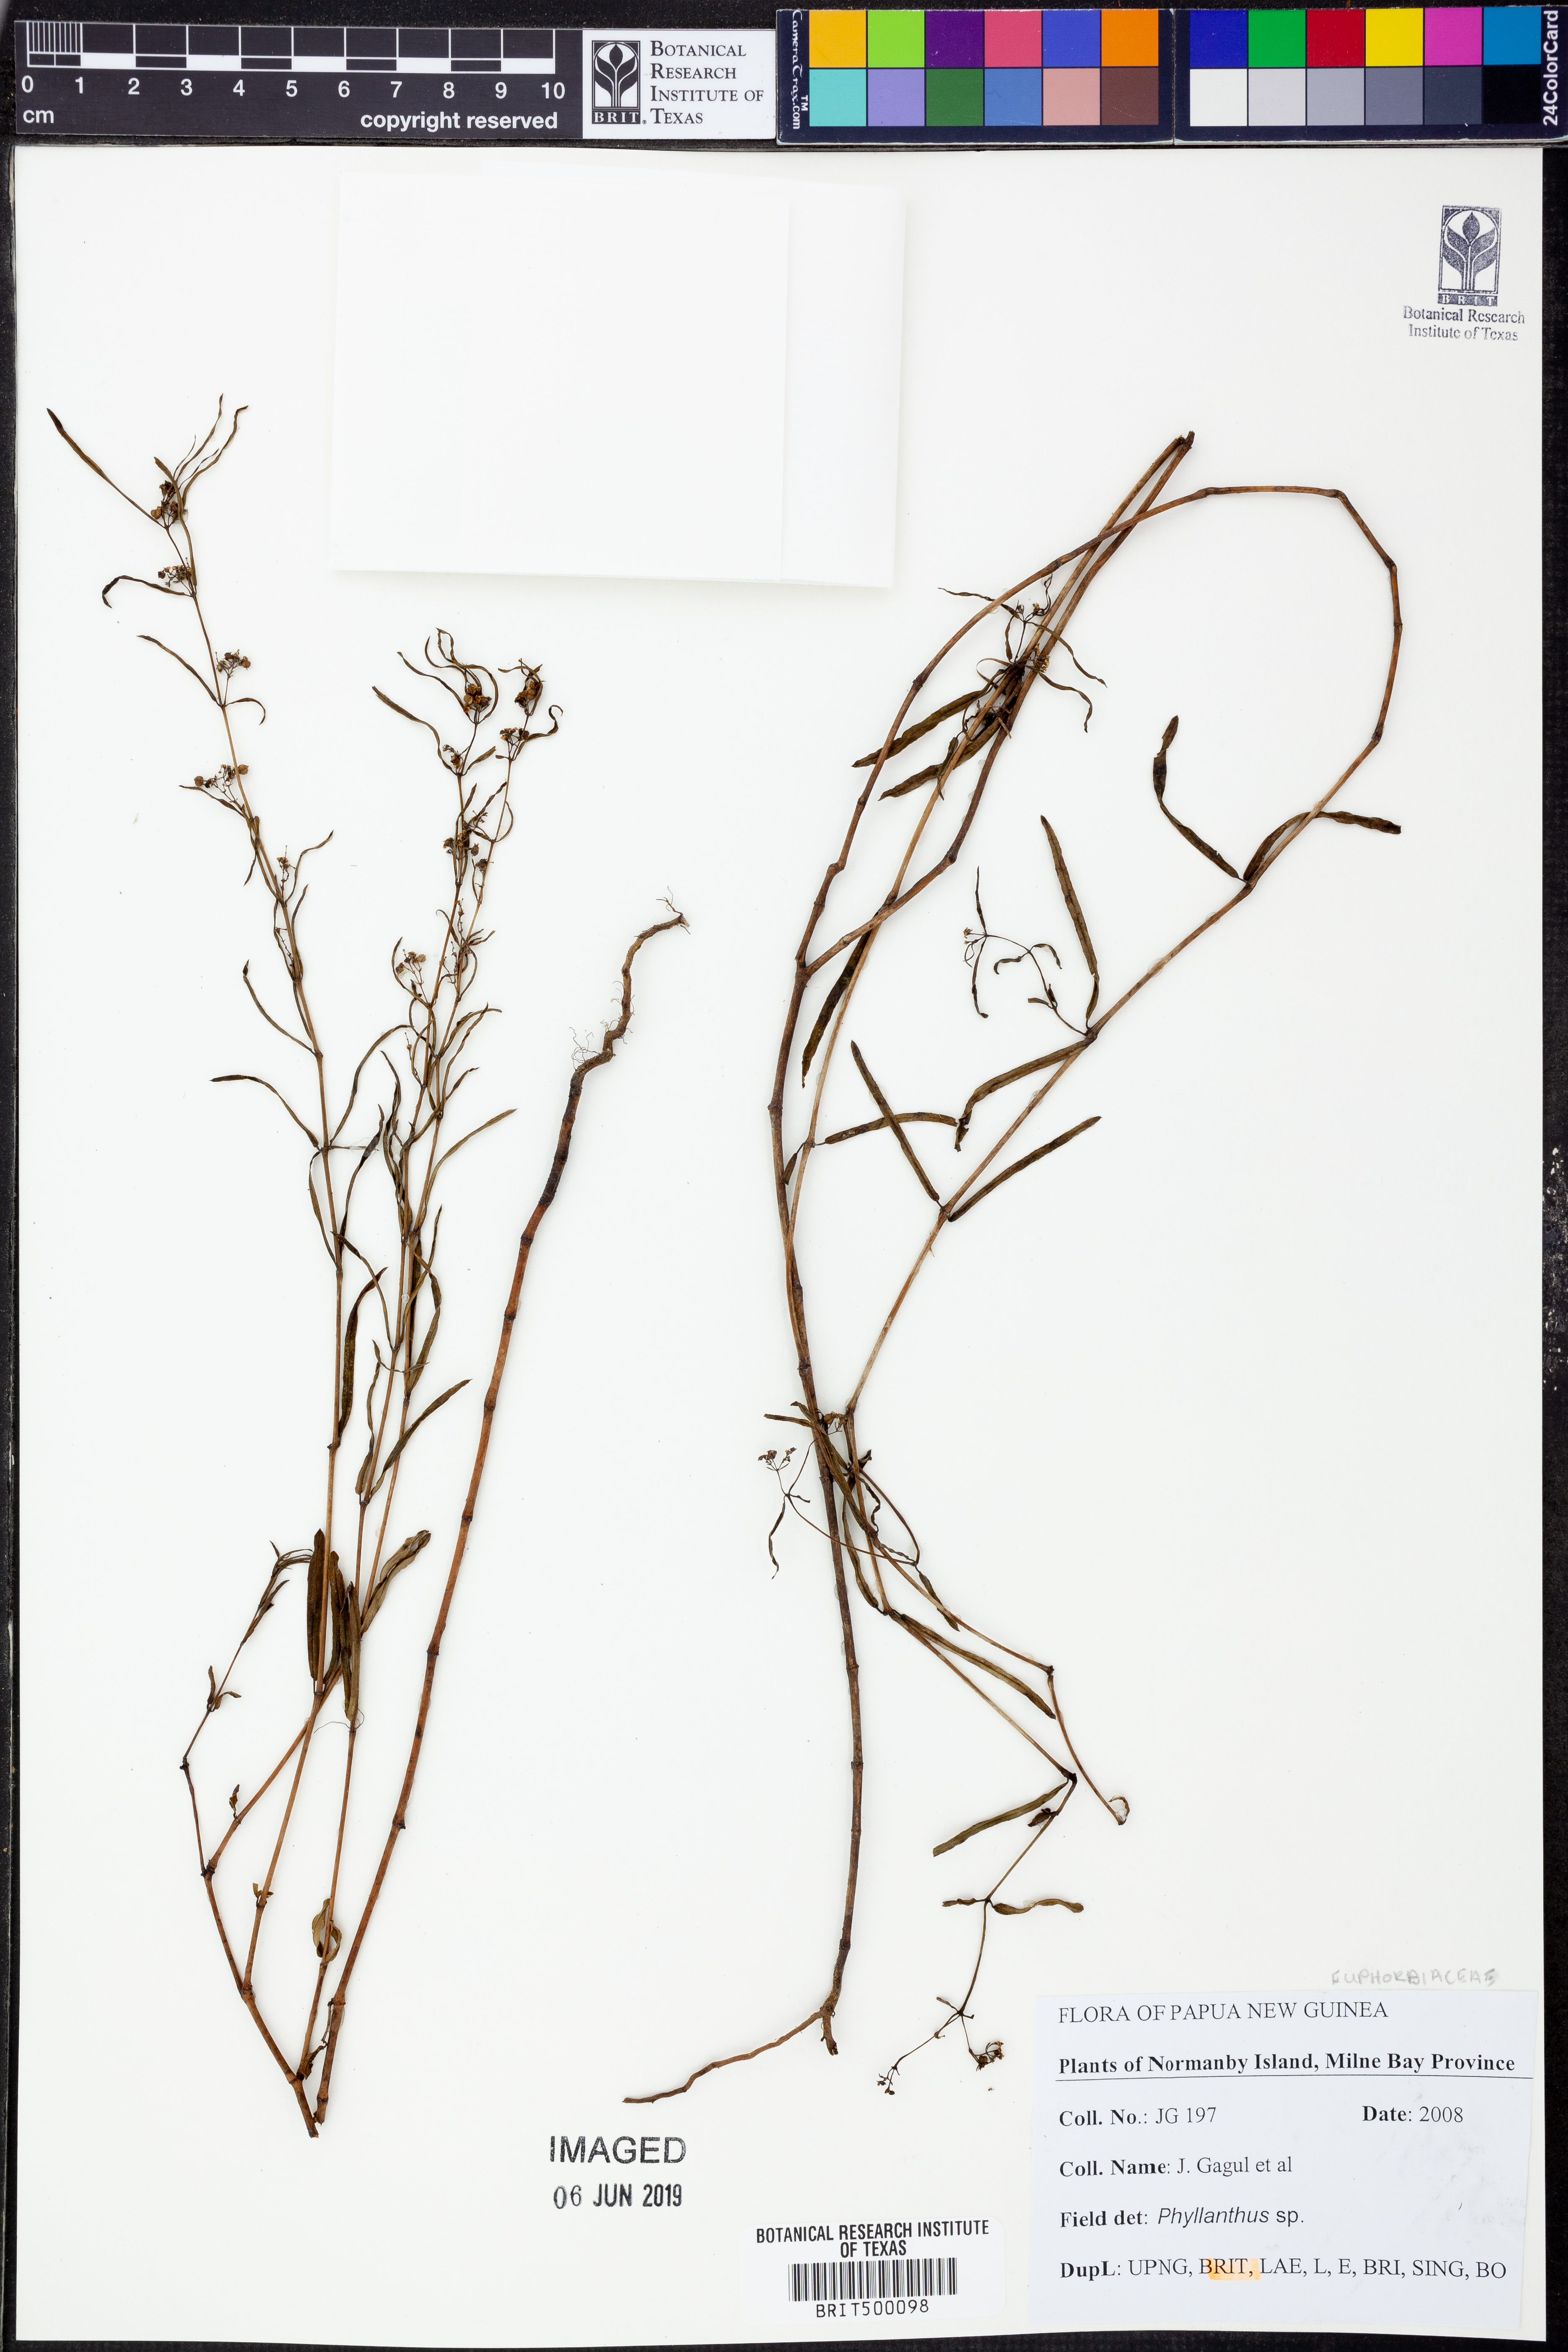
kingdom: Plantae
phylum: Tracheophyta
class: Magnoliopsida
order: Malpighiales
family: Phyllanthaceae
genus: Phyllanthus
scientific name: Phyllanthus
